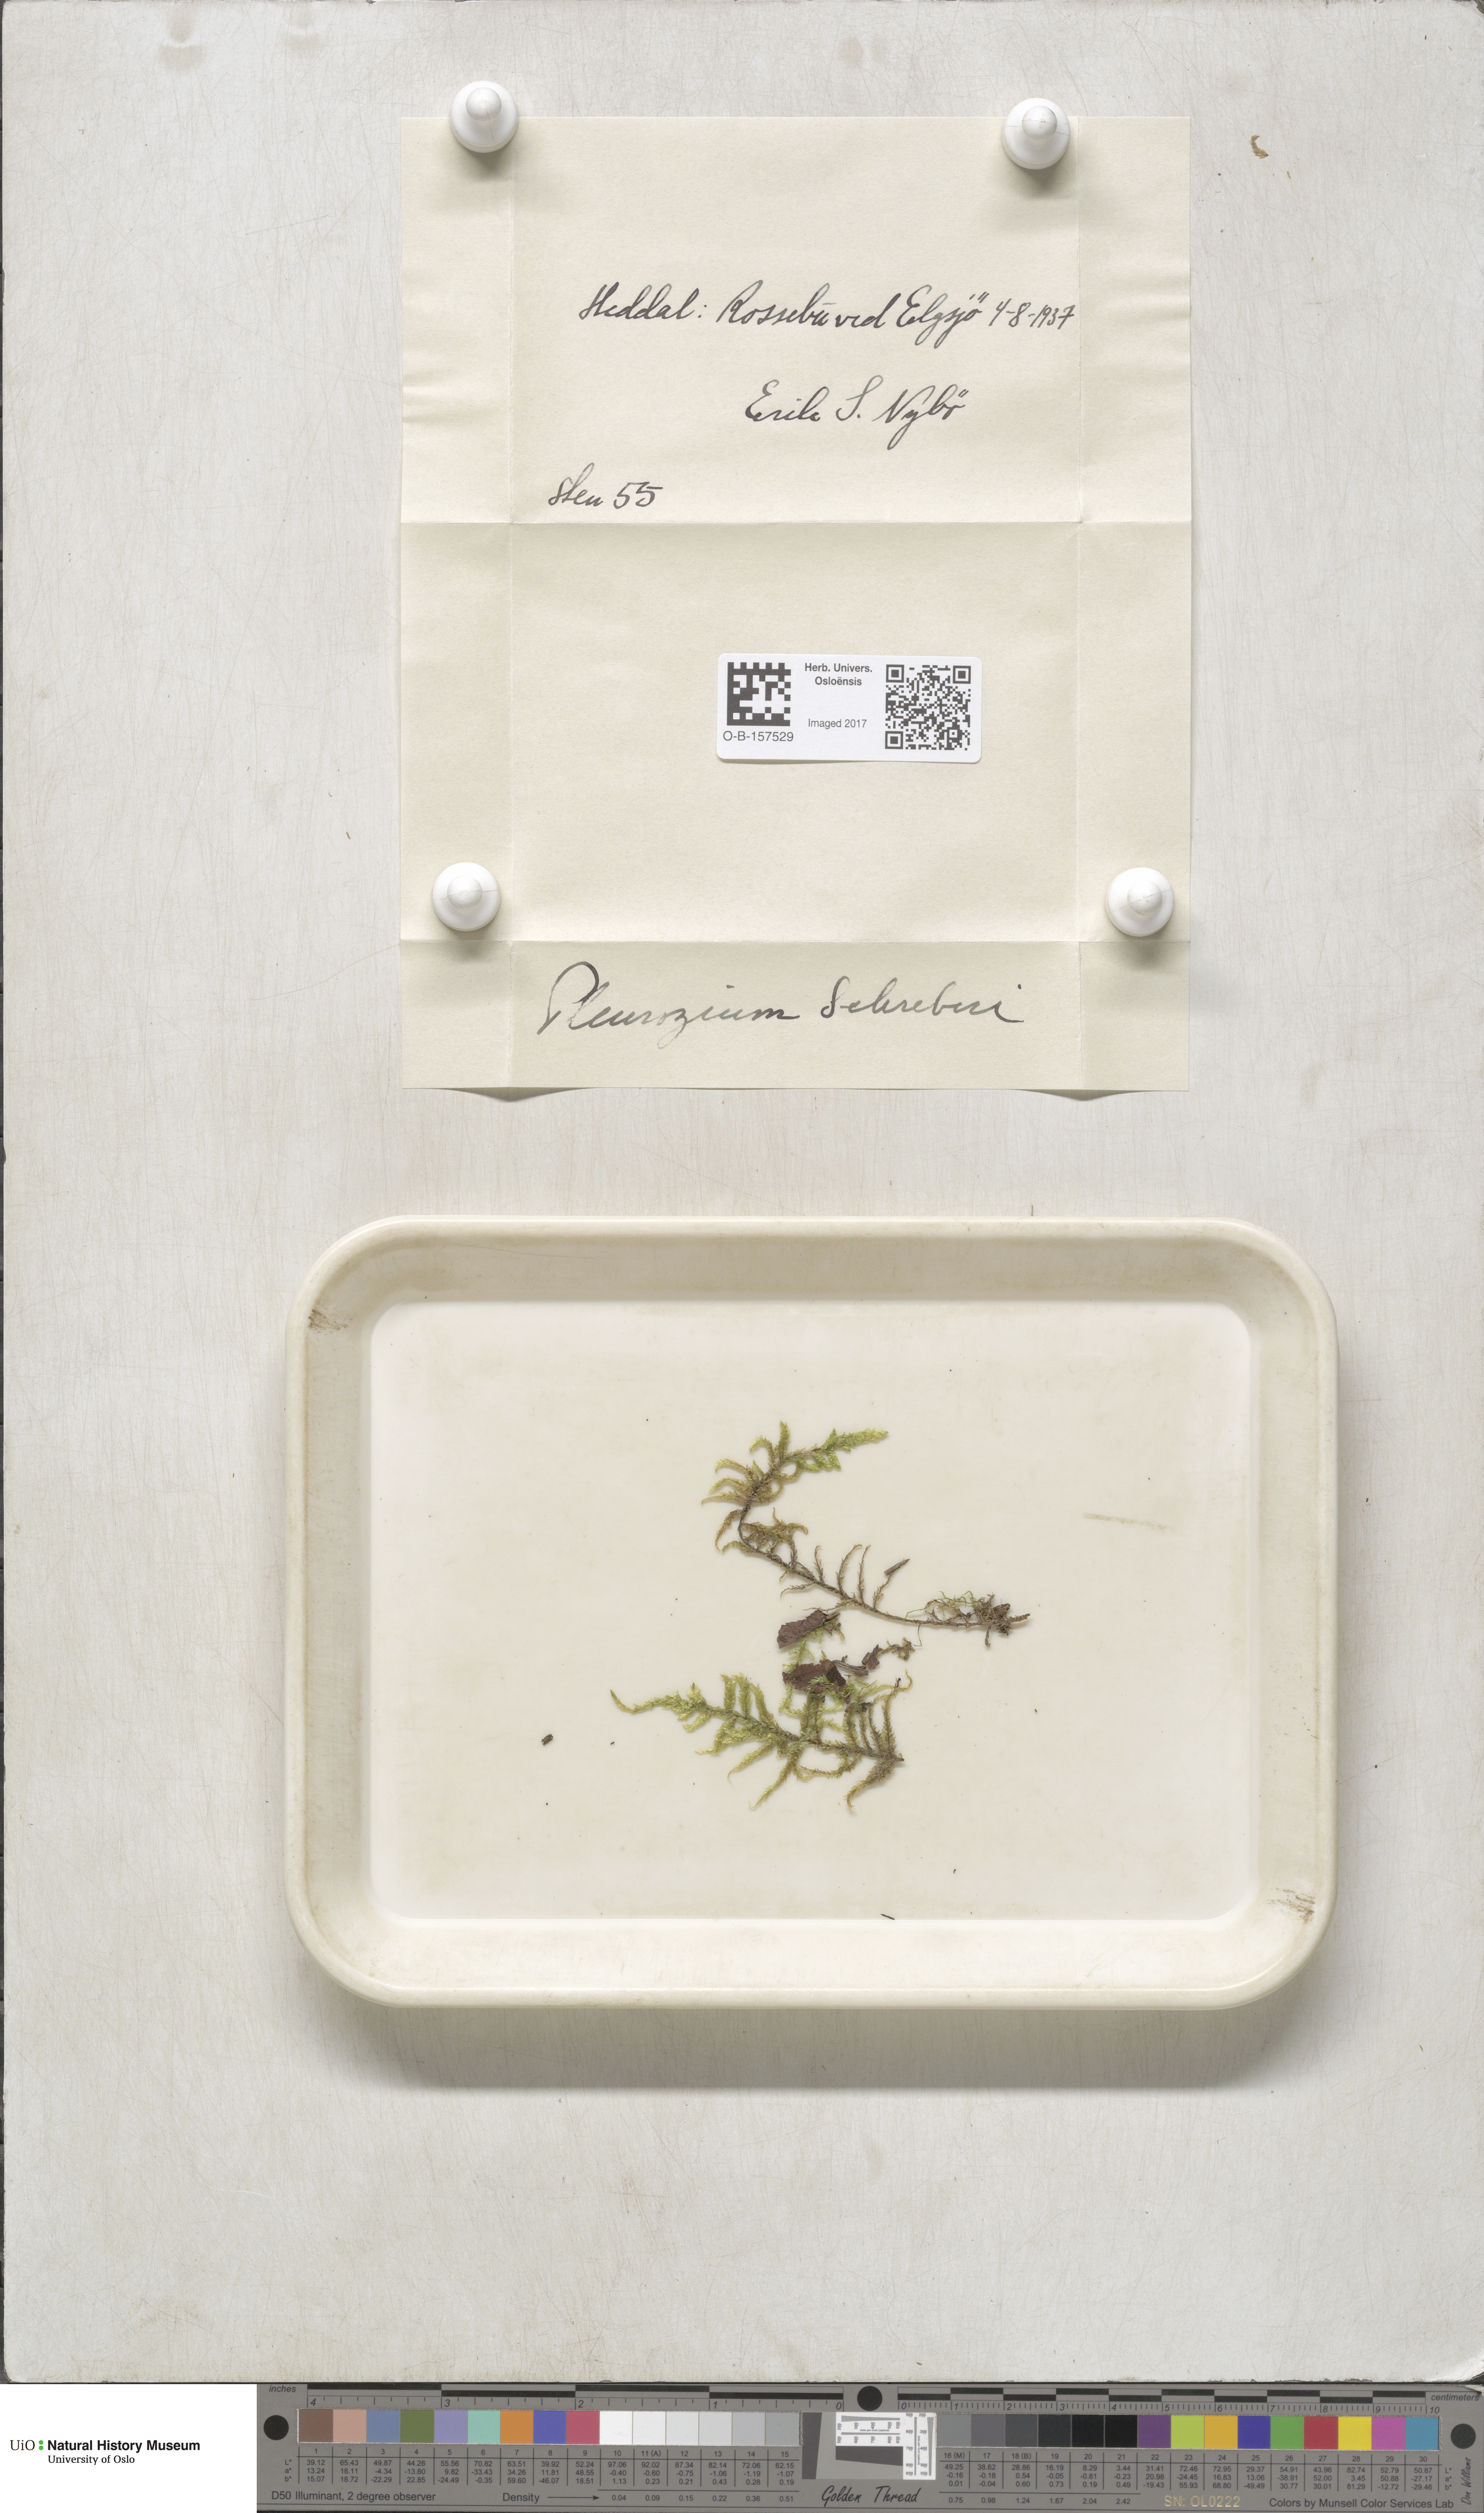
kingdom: Plantae
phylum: Bryophyta
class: Bryopsida
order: Hypnales
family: Hylocomiaceae
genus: Pleurozium
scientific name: Pleurozium schreberi
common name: Red-stemmed feather moss
